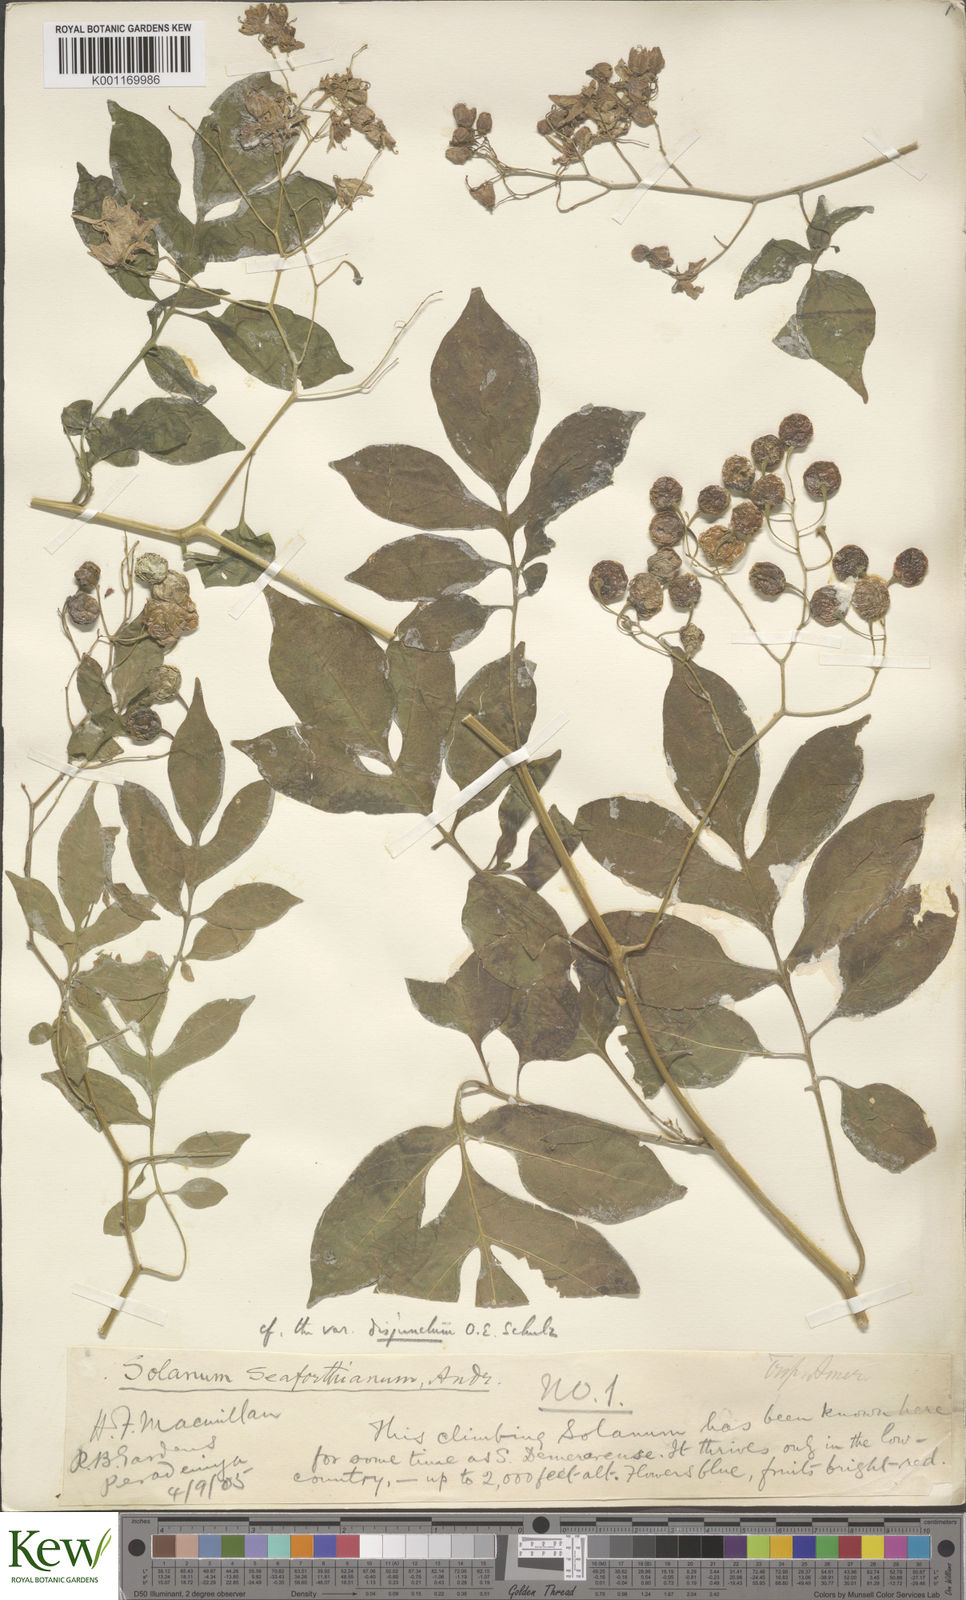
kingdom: Plantae
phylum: Tracheophyta
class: Magnoliopsida
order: Solanales
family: Solanaceae
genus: Solanum
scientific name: Solanum seaforthianum
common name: Brazilian nightshade
